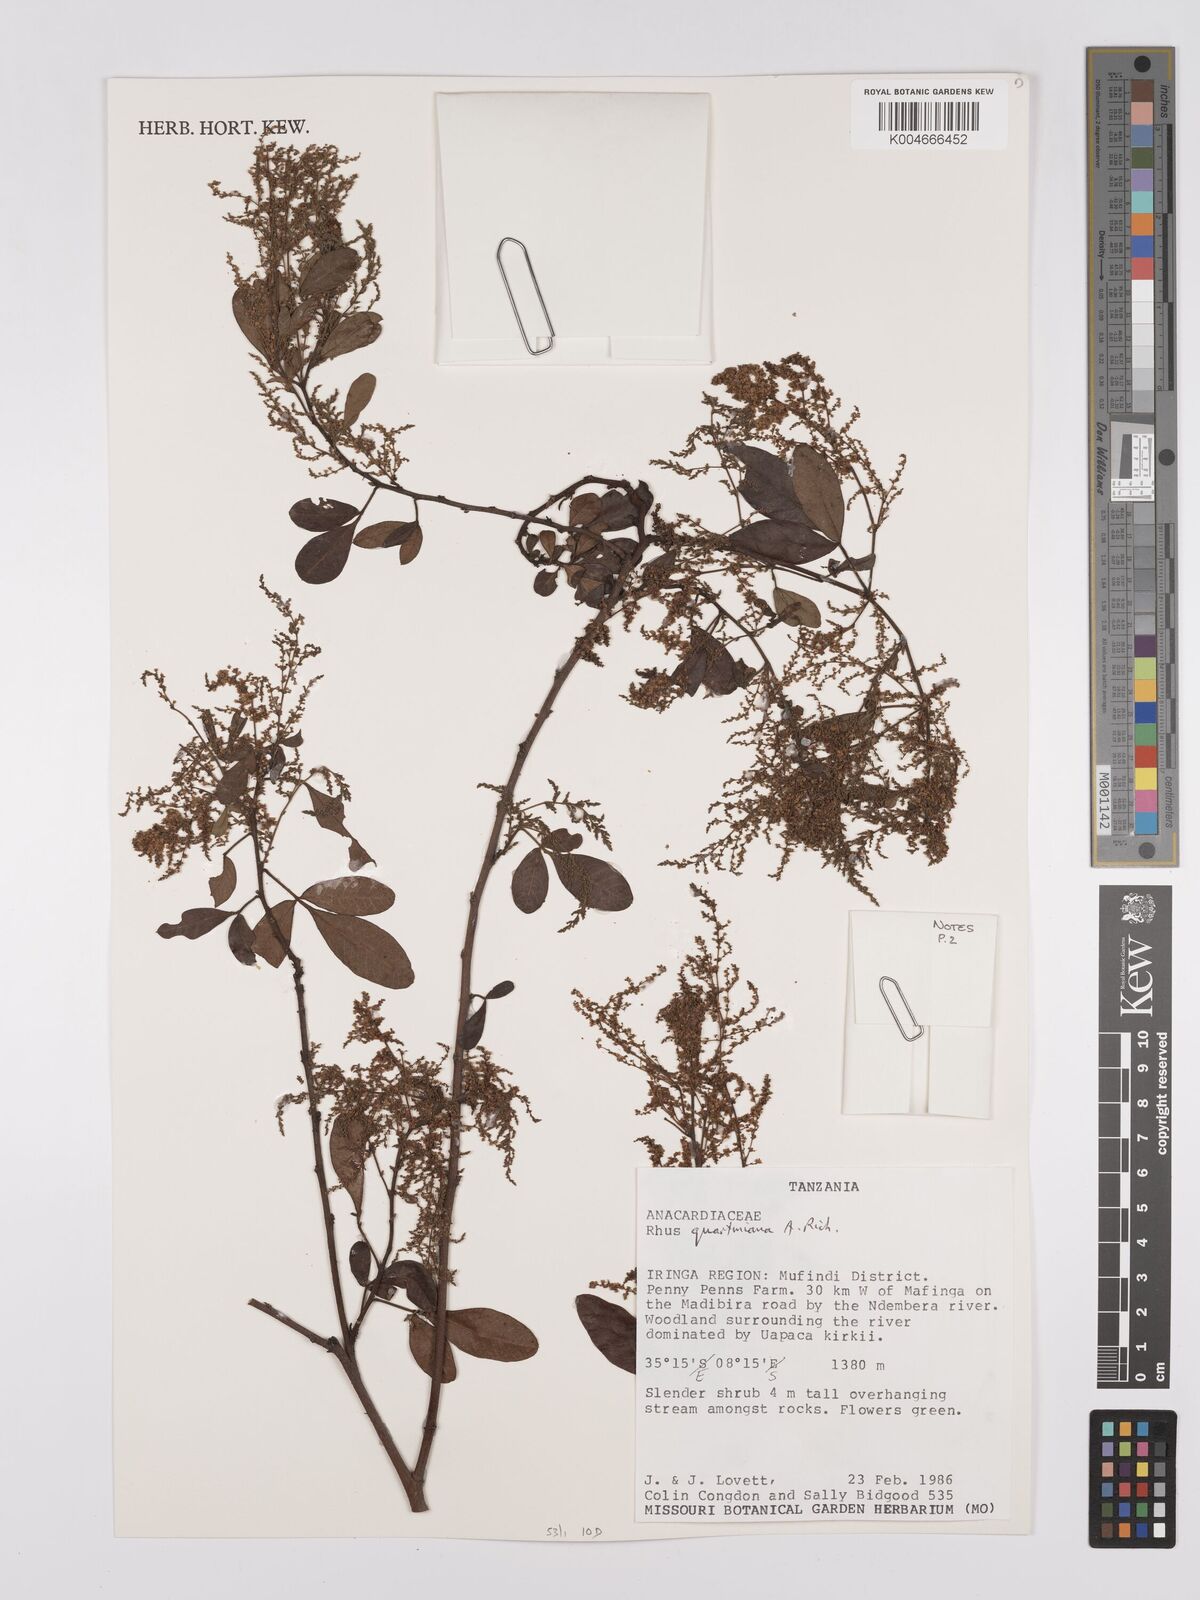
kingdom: Plantae
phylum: Tracheophyta
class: Magnoliopsida
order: Sapindales
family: Anacardiaceae
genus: Searsia
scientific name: Searsia quartiniana
